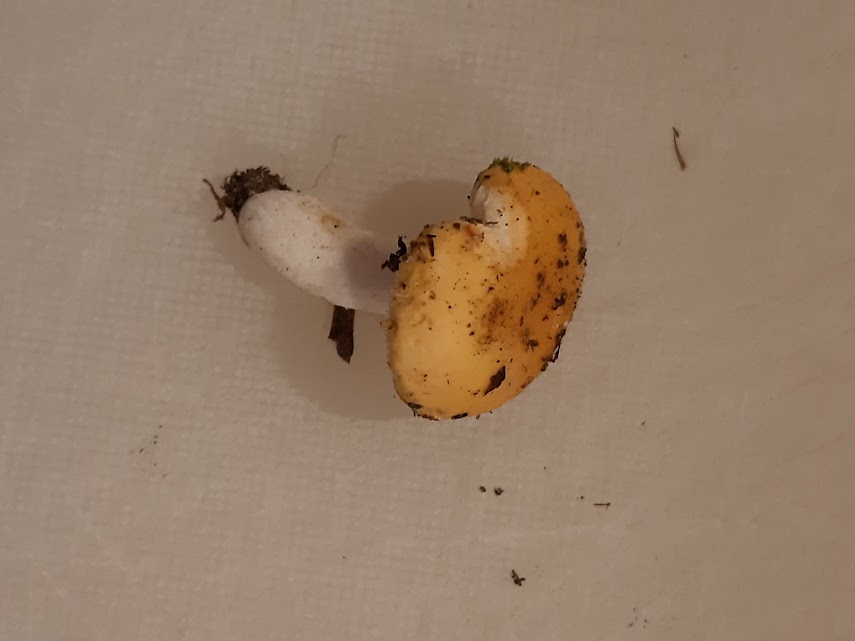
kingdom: Fungi
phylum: Basidiomycota
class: Agaricomycetes
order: Russulales
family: Russulaceae
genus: Russula
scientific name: Russula ochroleuca
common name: okkergul skørhat
